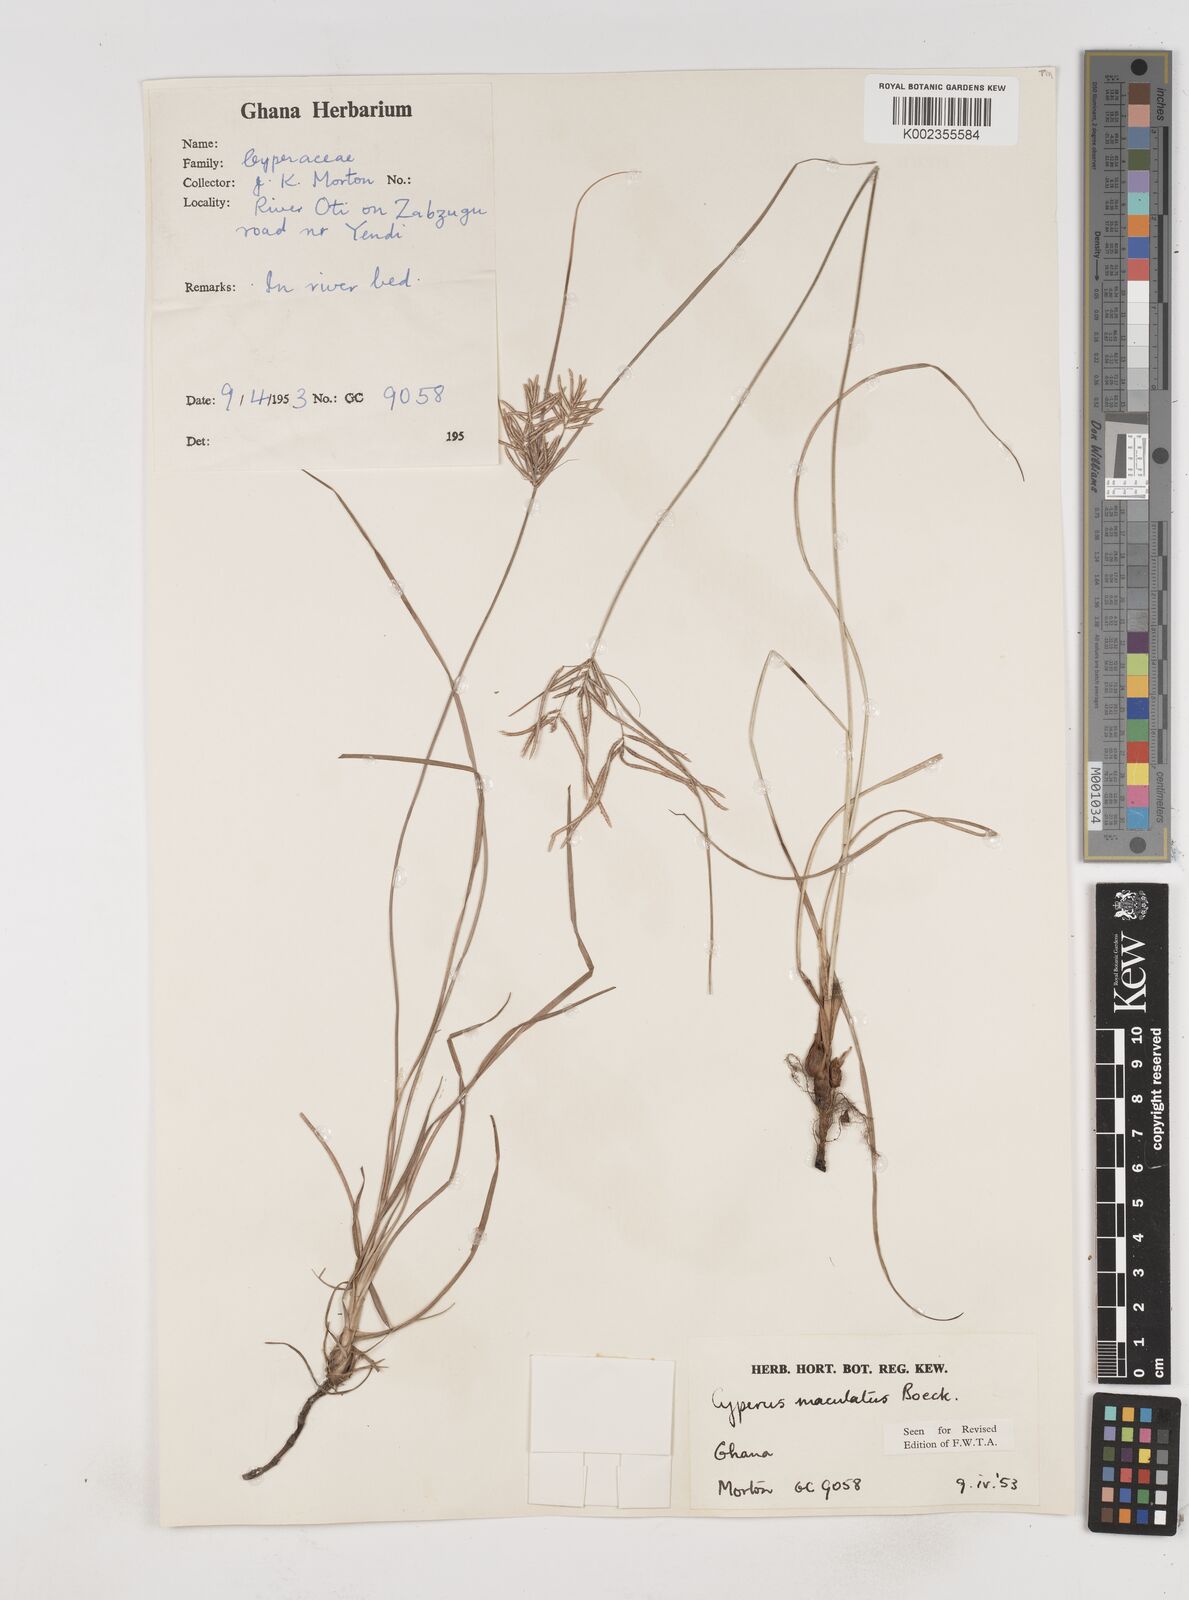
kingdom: Plantae
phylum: Tracheophyta
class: Liliopsida
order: Poales
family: Cyperaceae
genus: Cyperus
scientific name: Cyperus maculatus
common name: Maculated sedge
